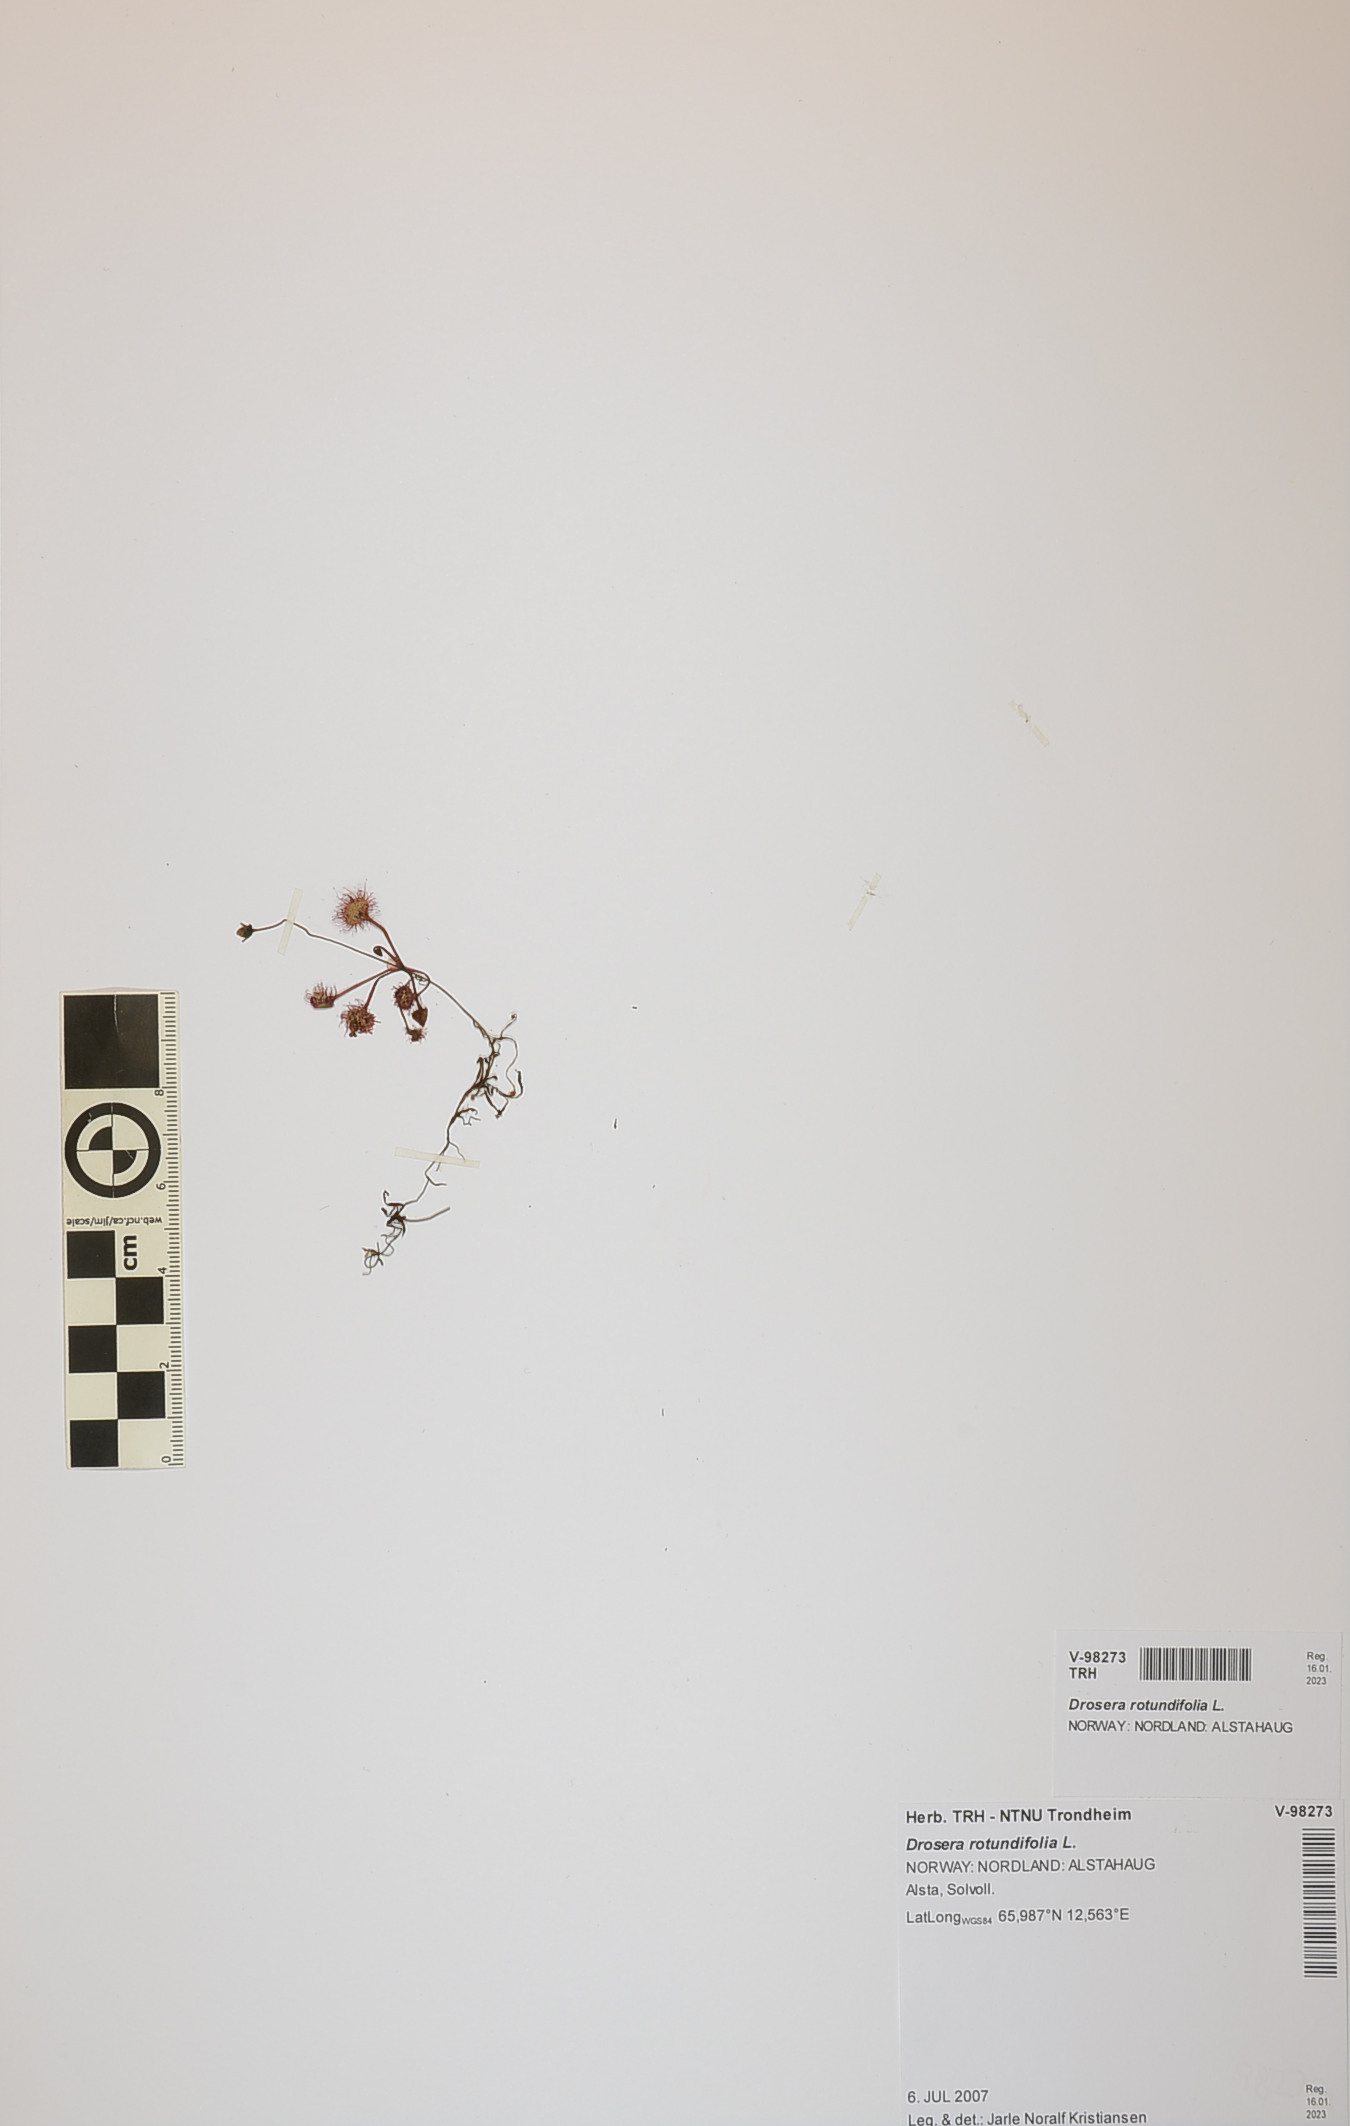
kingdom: Plantae
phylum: Tracheophyta
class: Magnoliopsida
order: Caryophyllales
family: Droseraceae
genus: Drosera
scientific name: Drosera rotundifolia
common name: Round-leaved sundew
